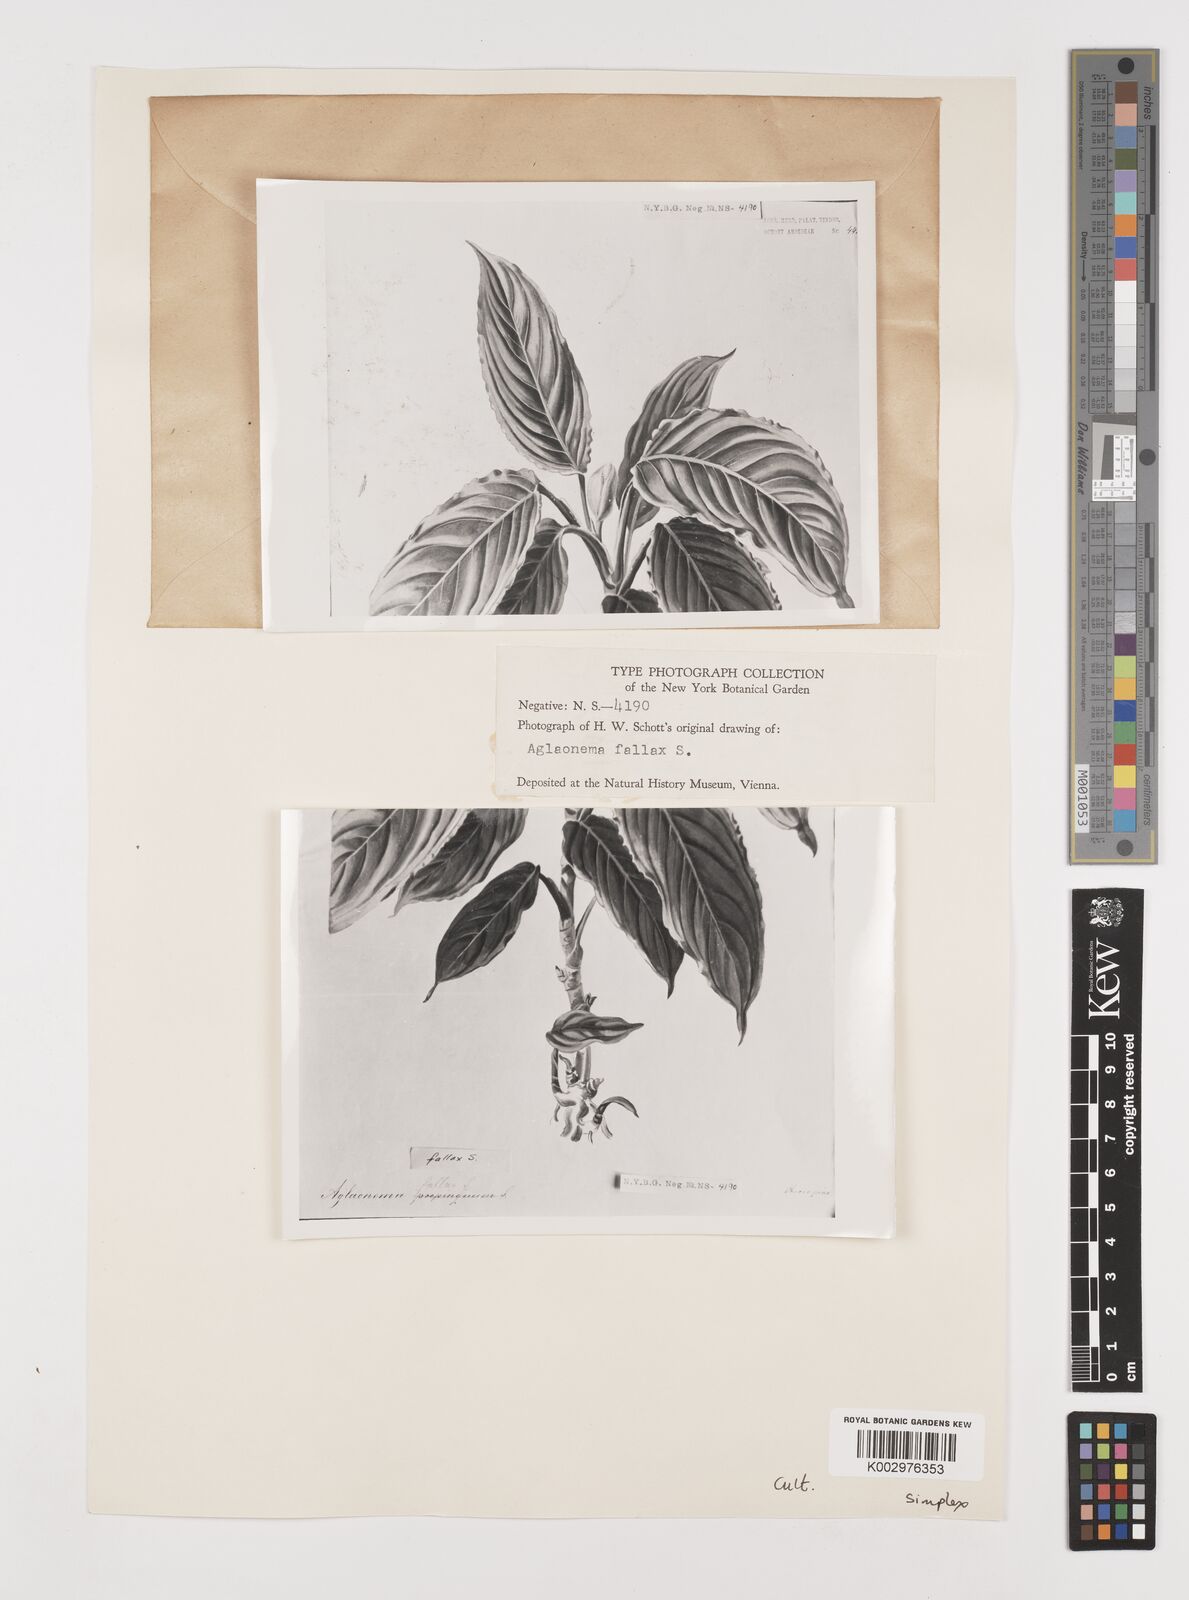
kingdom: Plantae
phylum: Tracheophyta
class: Liliopsida
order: Alismatales
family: Araceae
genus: Aglaonema
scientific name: Aglaonema simplex
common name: Malayan-sword
